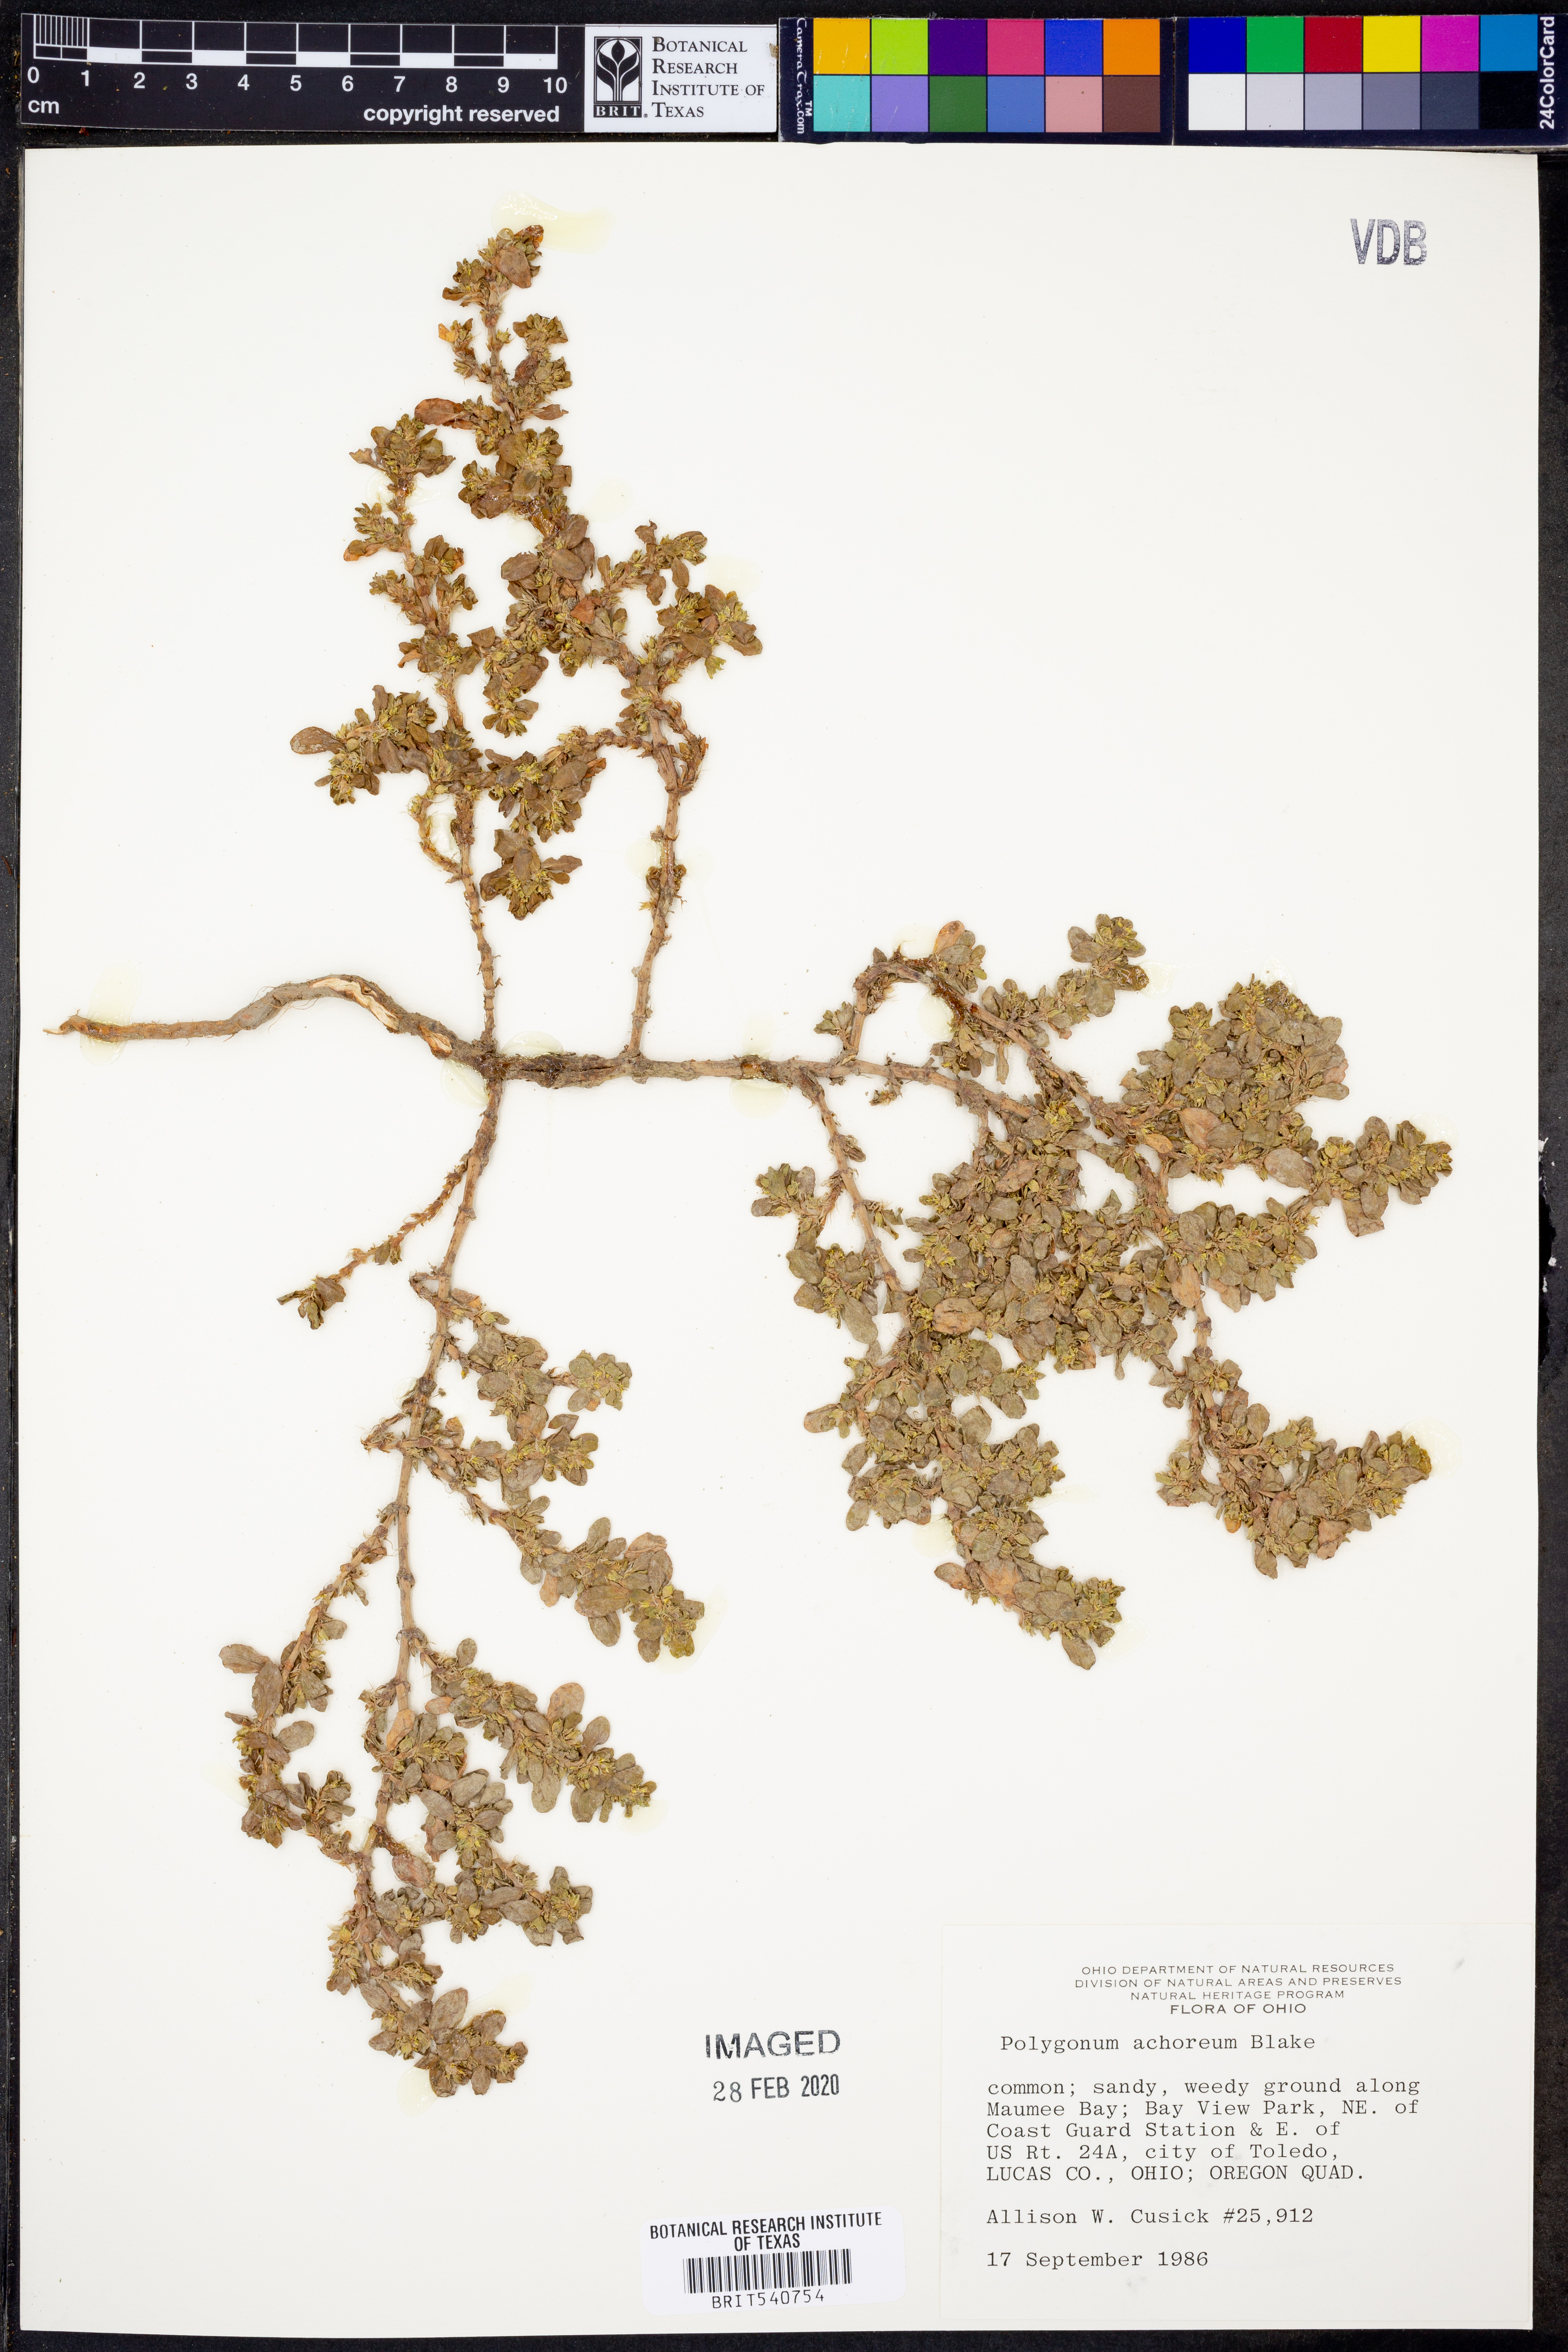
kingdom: Plantae
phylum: Tracheophyta
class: Magnoliopsida
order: Caryophyllales
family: Polygonaceae
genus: Polygonum
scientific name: Polygonum achoreum
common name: Striate knotweed
